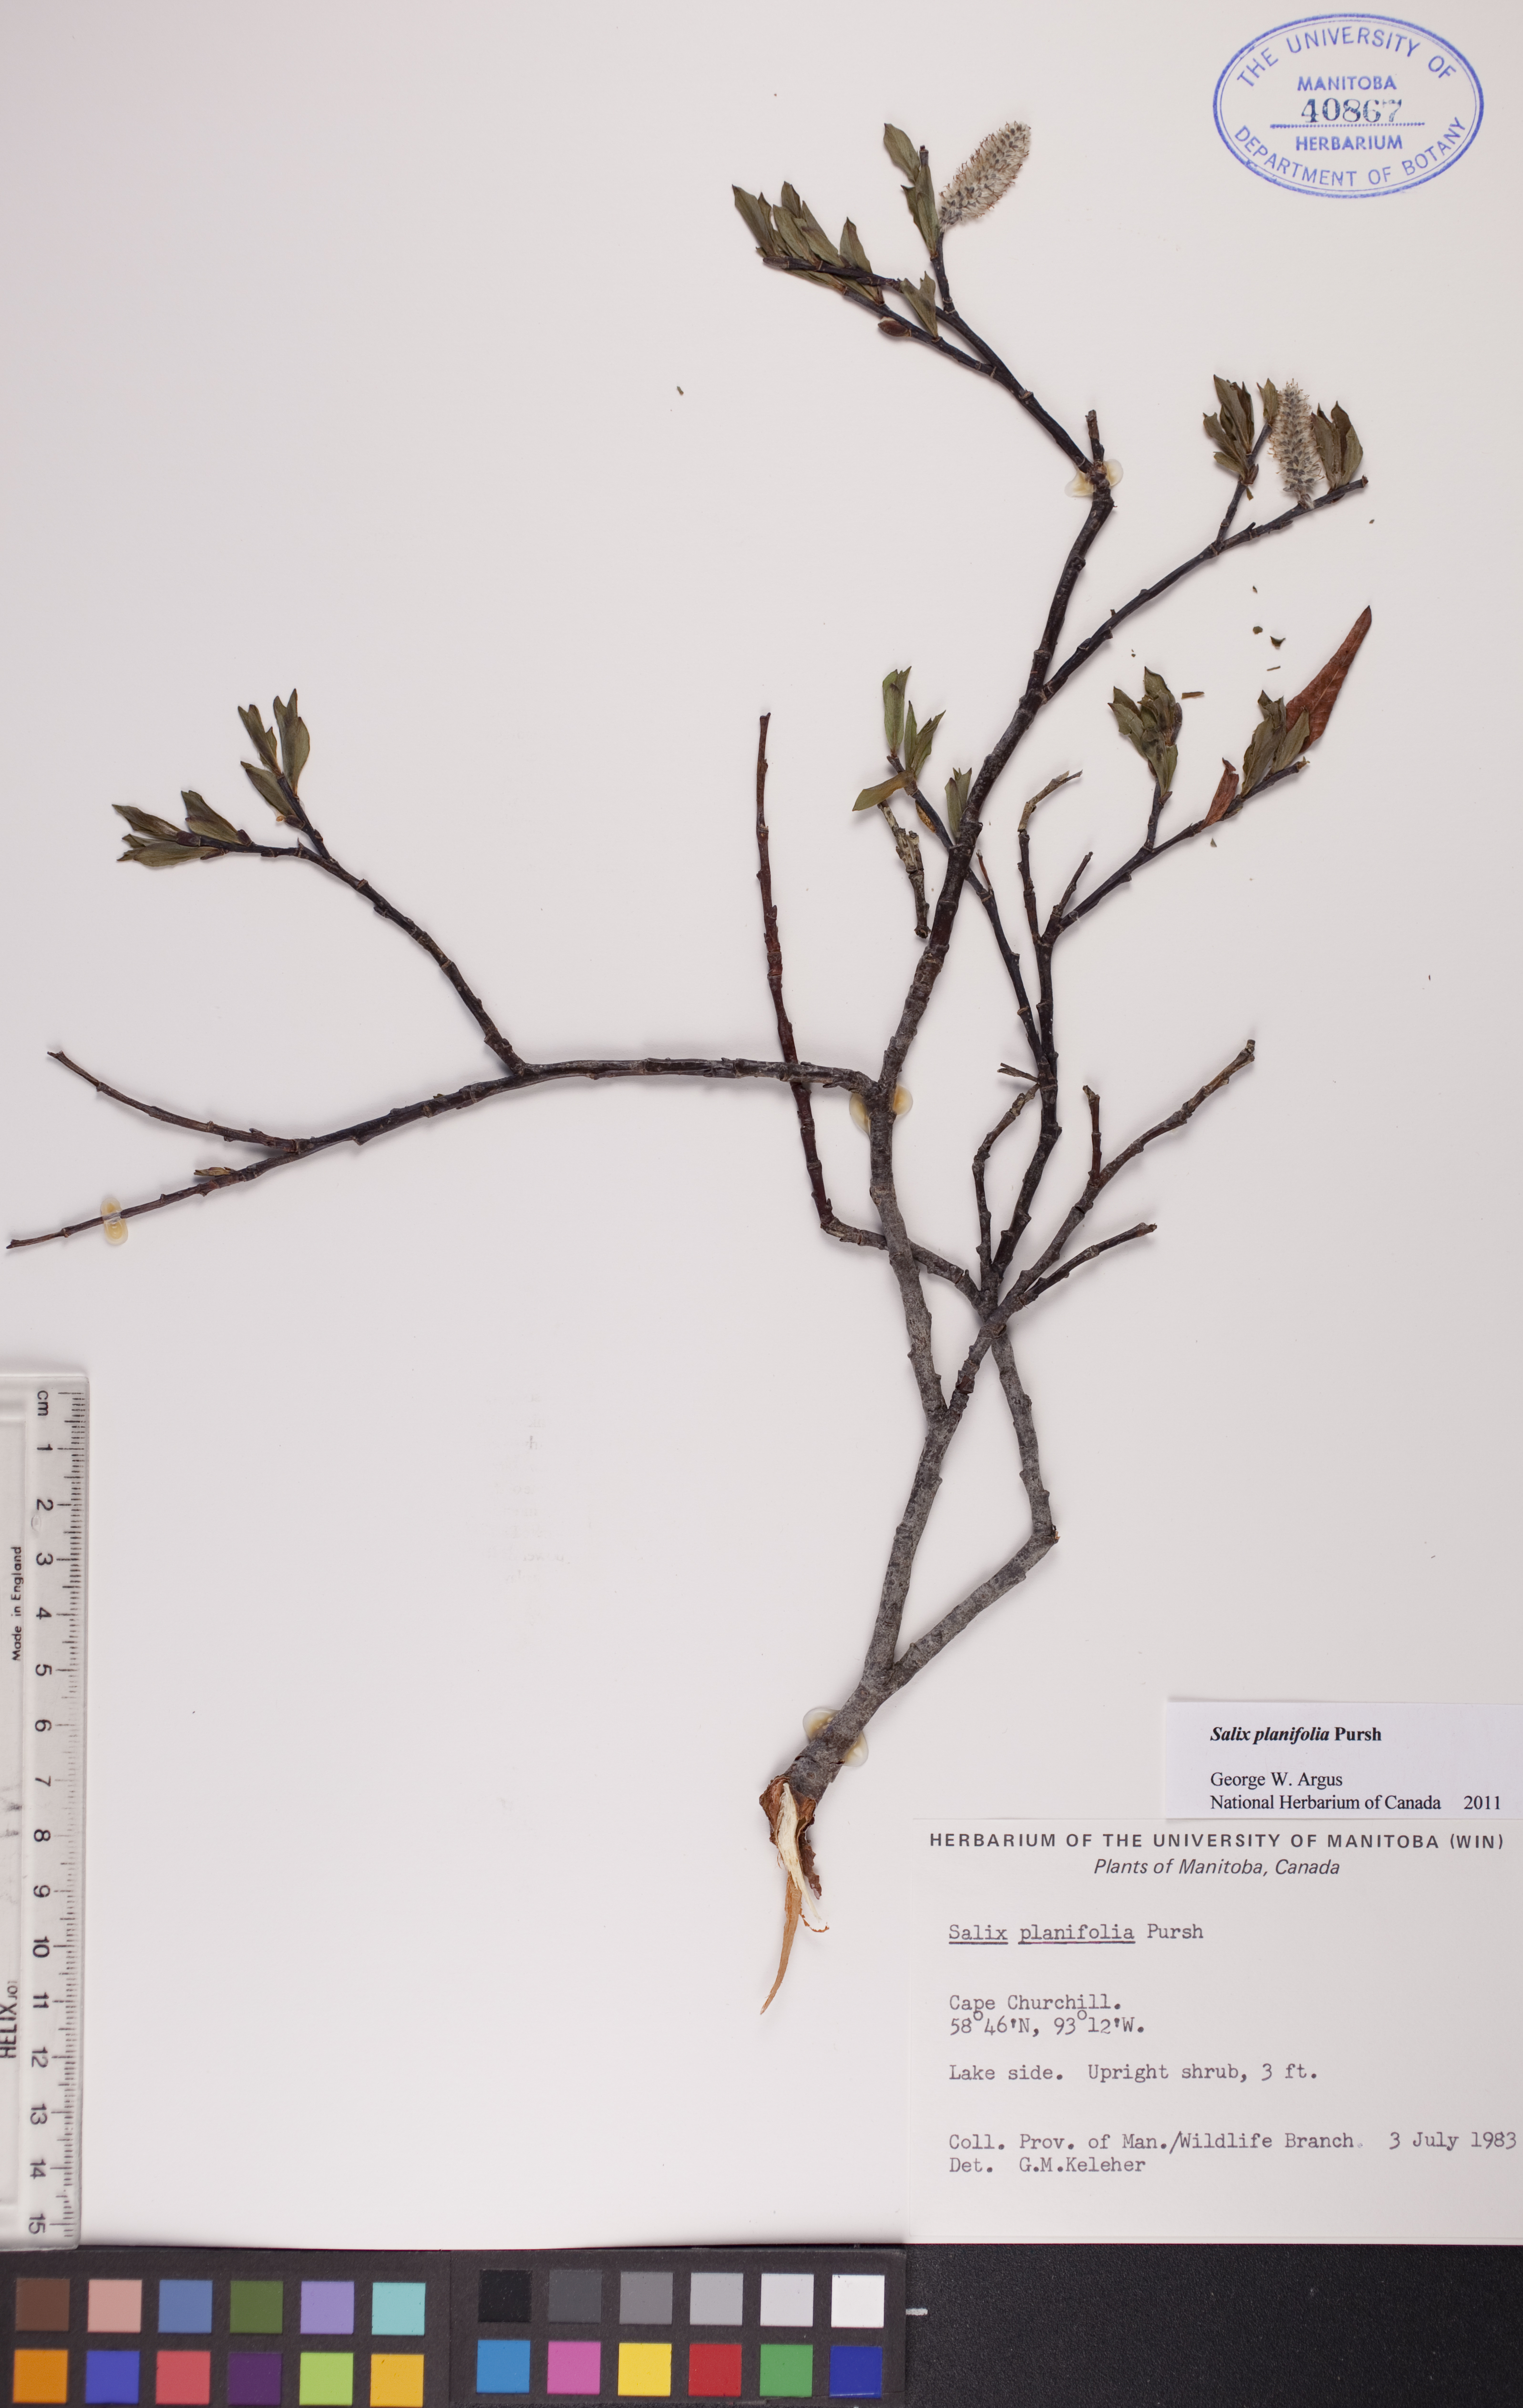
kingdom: Plantae
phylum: Tracheophyta
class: Magnoliopsida
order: Malpighiales
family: Salicaceae
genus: Salix
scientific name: Salix planifolia
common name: Mountain willow
